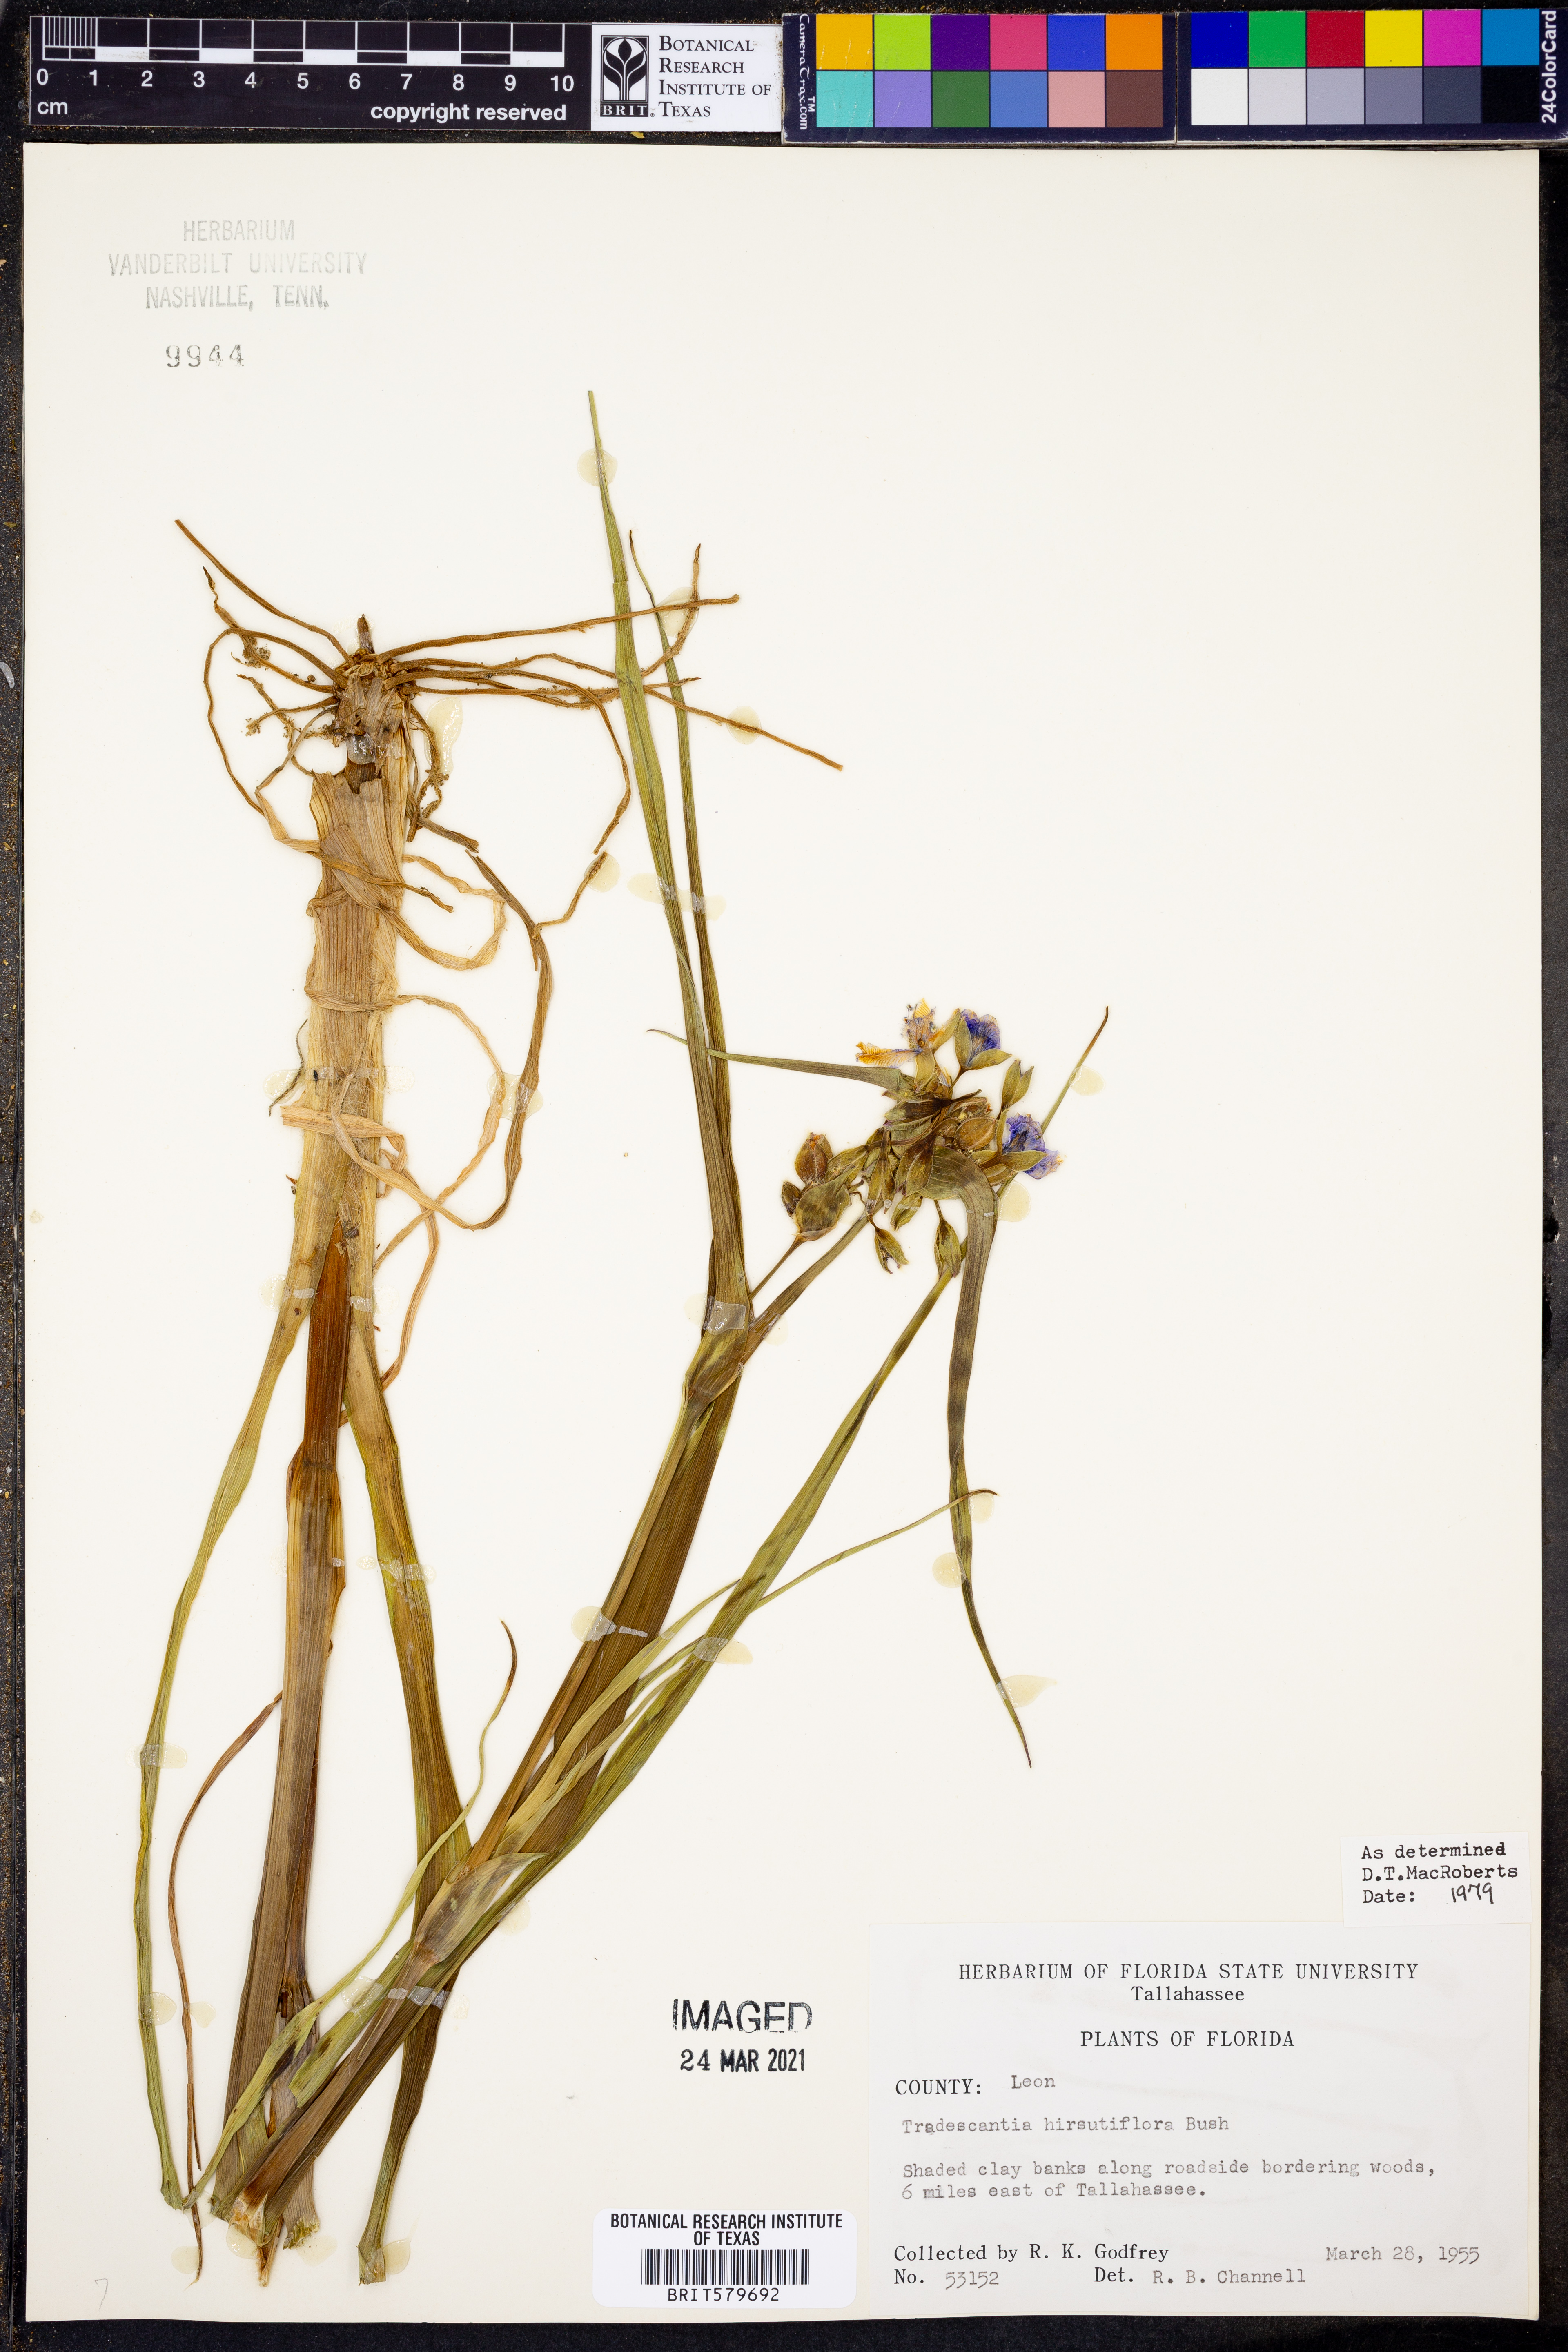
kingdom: Plantae
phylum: Tracheophyta
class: Liliopsida
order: Commelinales
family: Commelinaceae
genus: Tradescantia
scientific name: Tradescantia hirsutiflora
